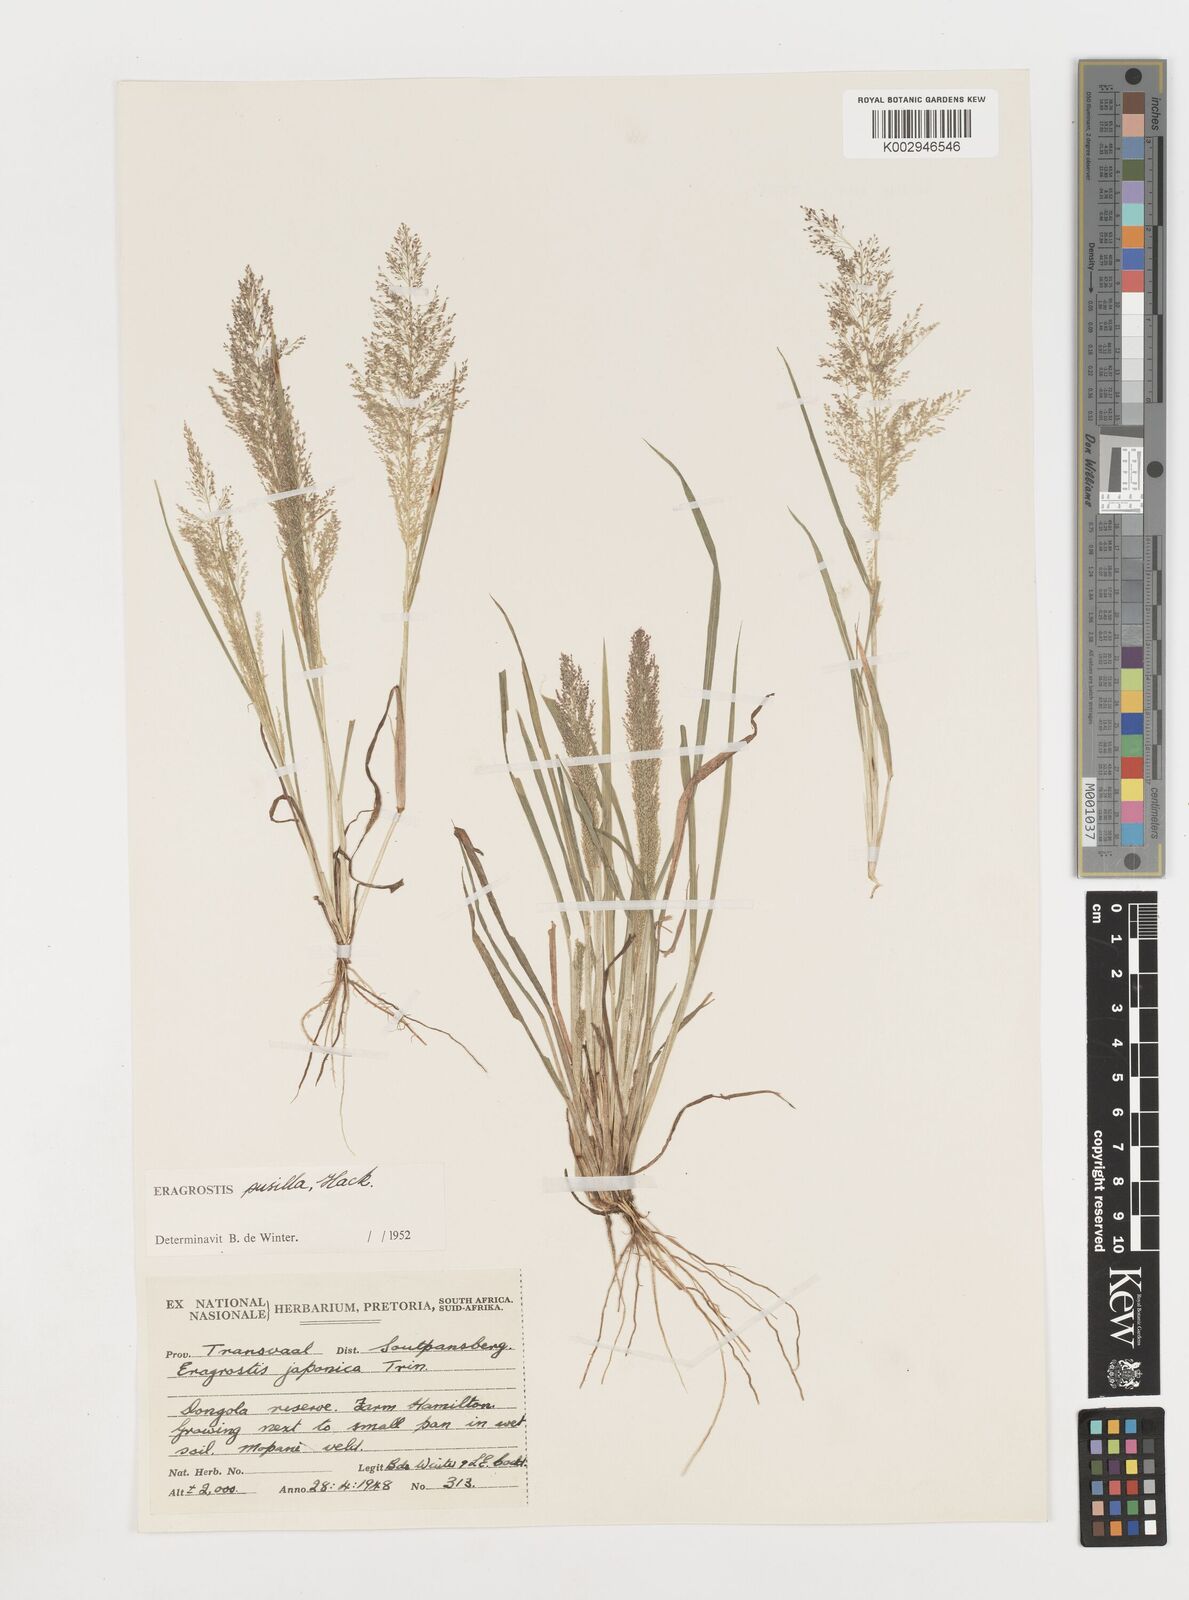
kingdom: Plantae
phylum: Tracheophyta
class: Liliopsida
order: Poales
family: Poaceae
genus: Eragrostis
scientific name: Eragrostis pusilla
